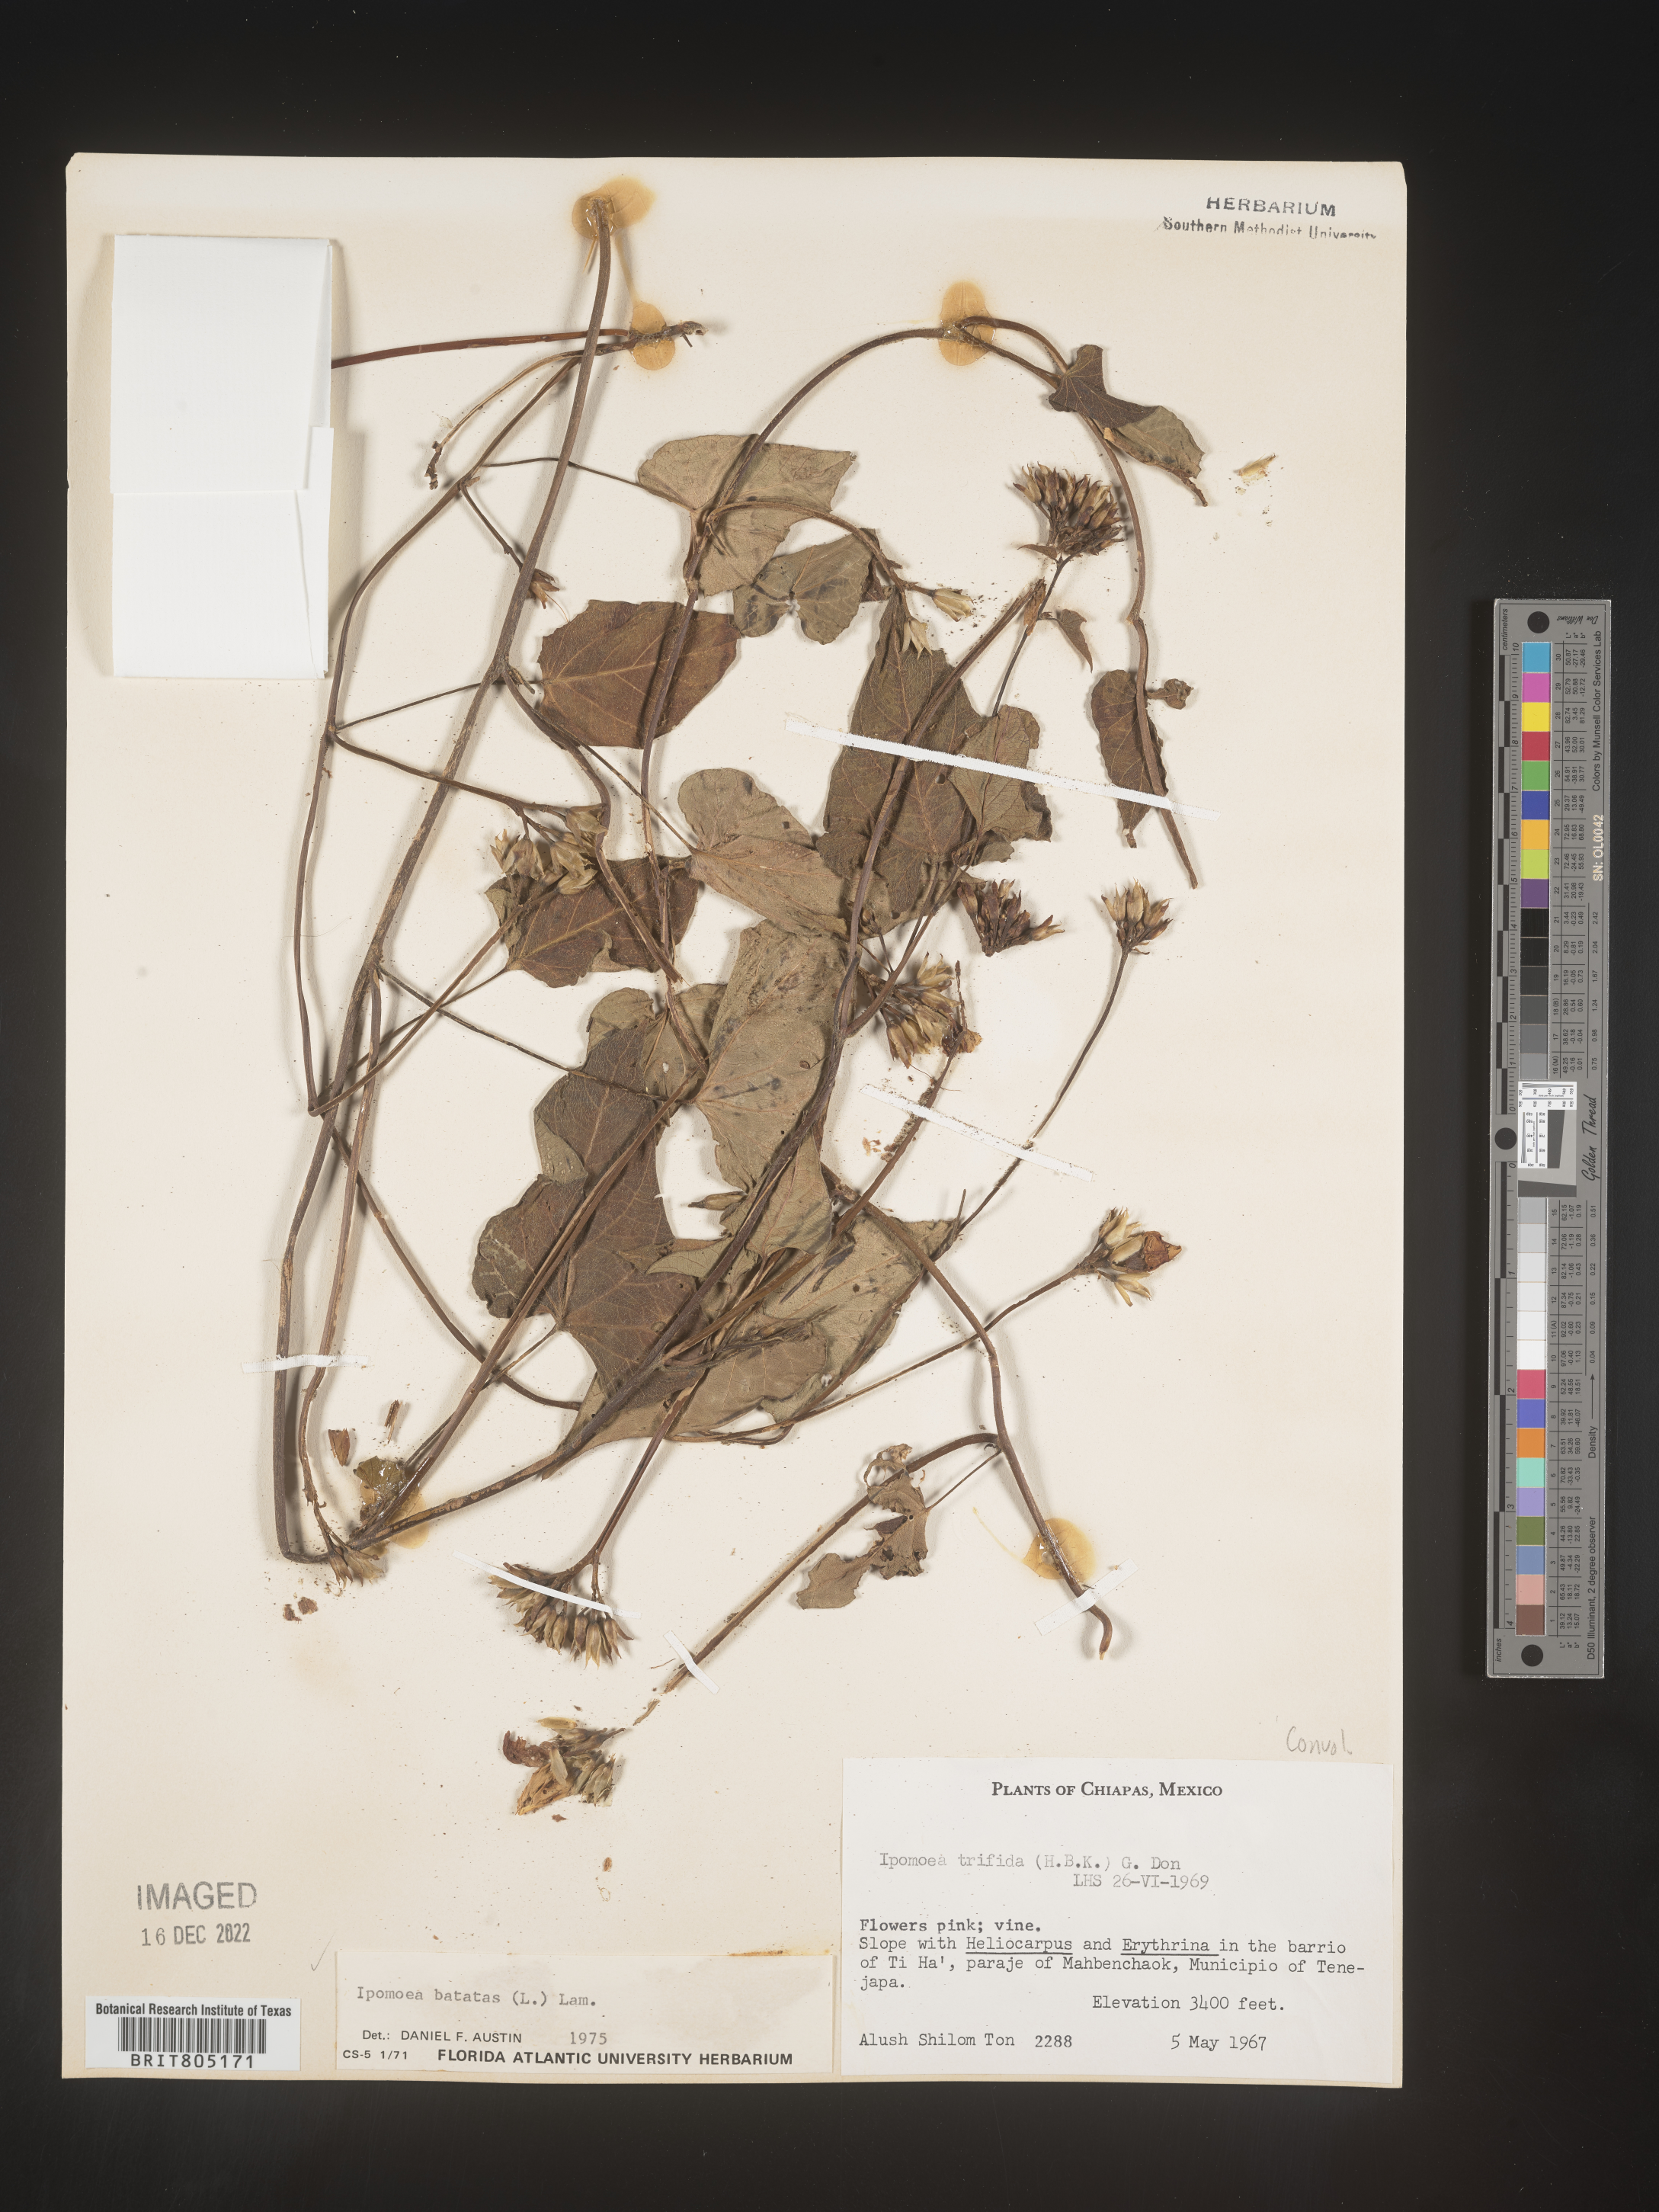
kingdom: Plantae
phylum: Tracheophyta
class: Magnoliopsida
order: Solanales
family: Convolvulaceae
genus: Ipomoea
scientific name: Ipomoea
